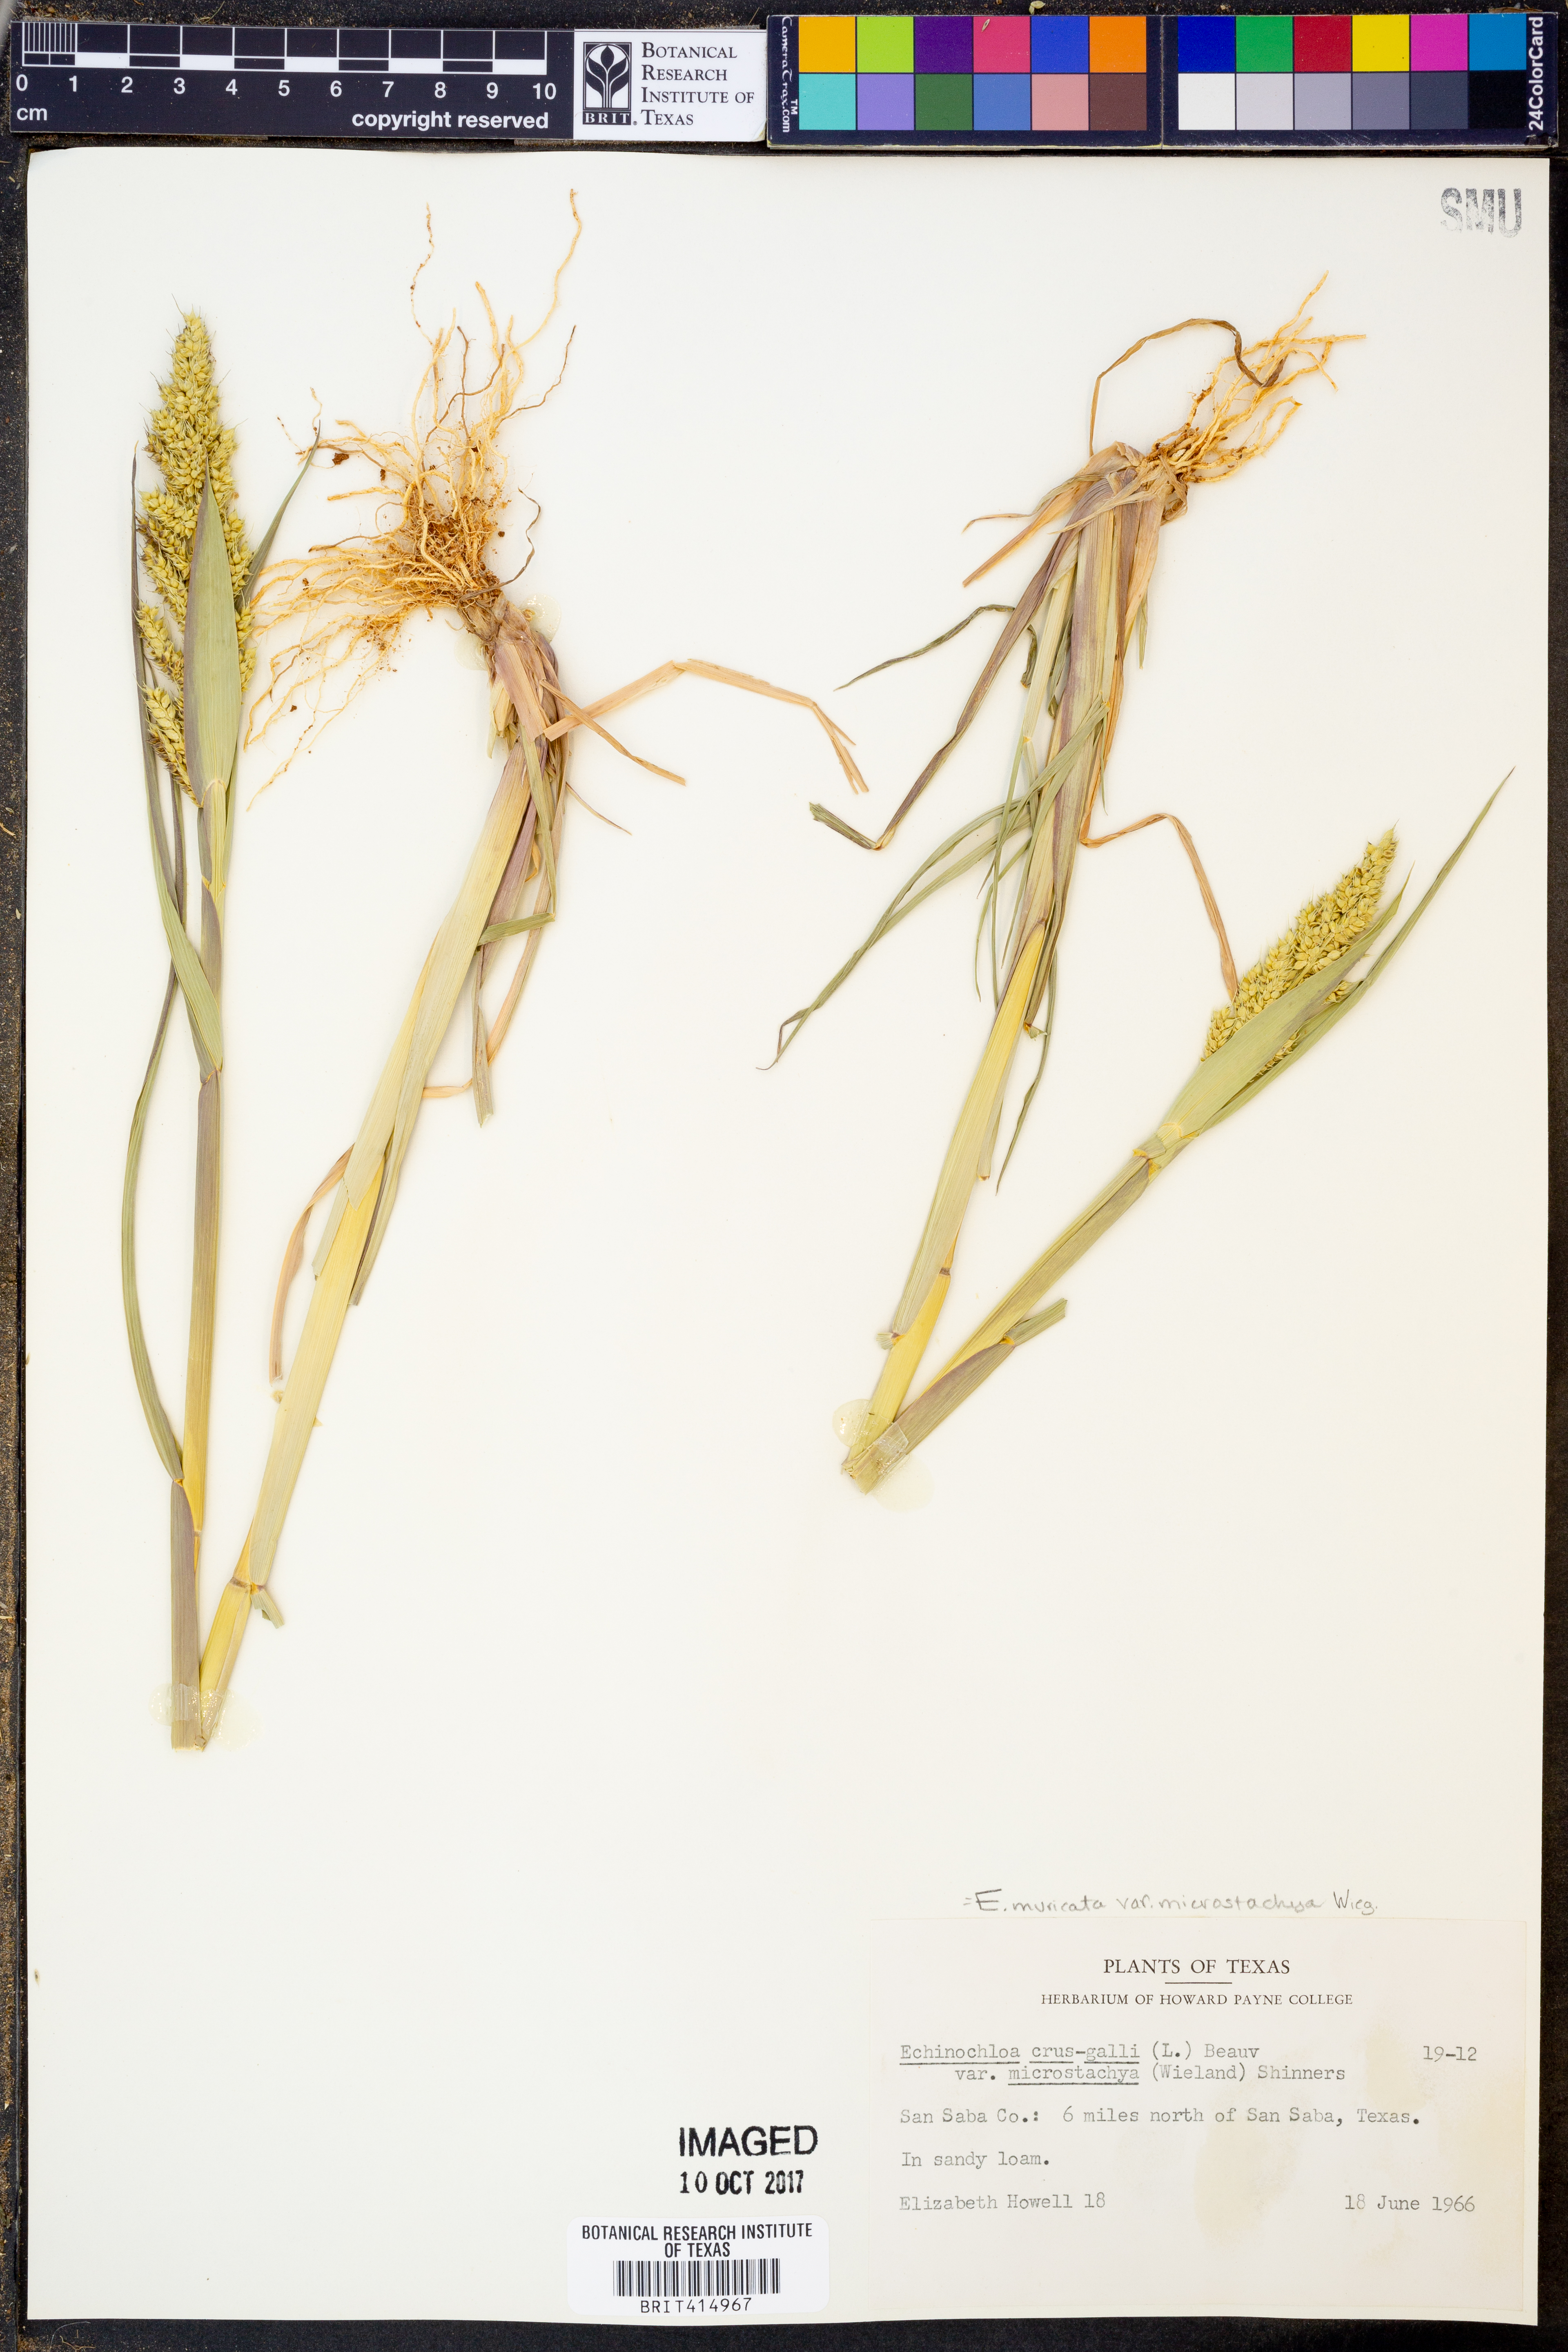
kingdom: Plantae
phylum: Tracheophyta
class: Liliopsida
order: Poales
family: Poaceae
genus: Echinochloa
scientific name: Echinochloa muricata
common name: American barnyard grass
